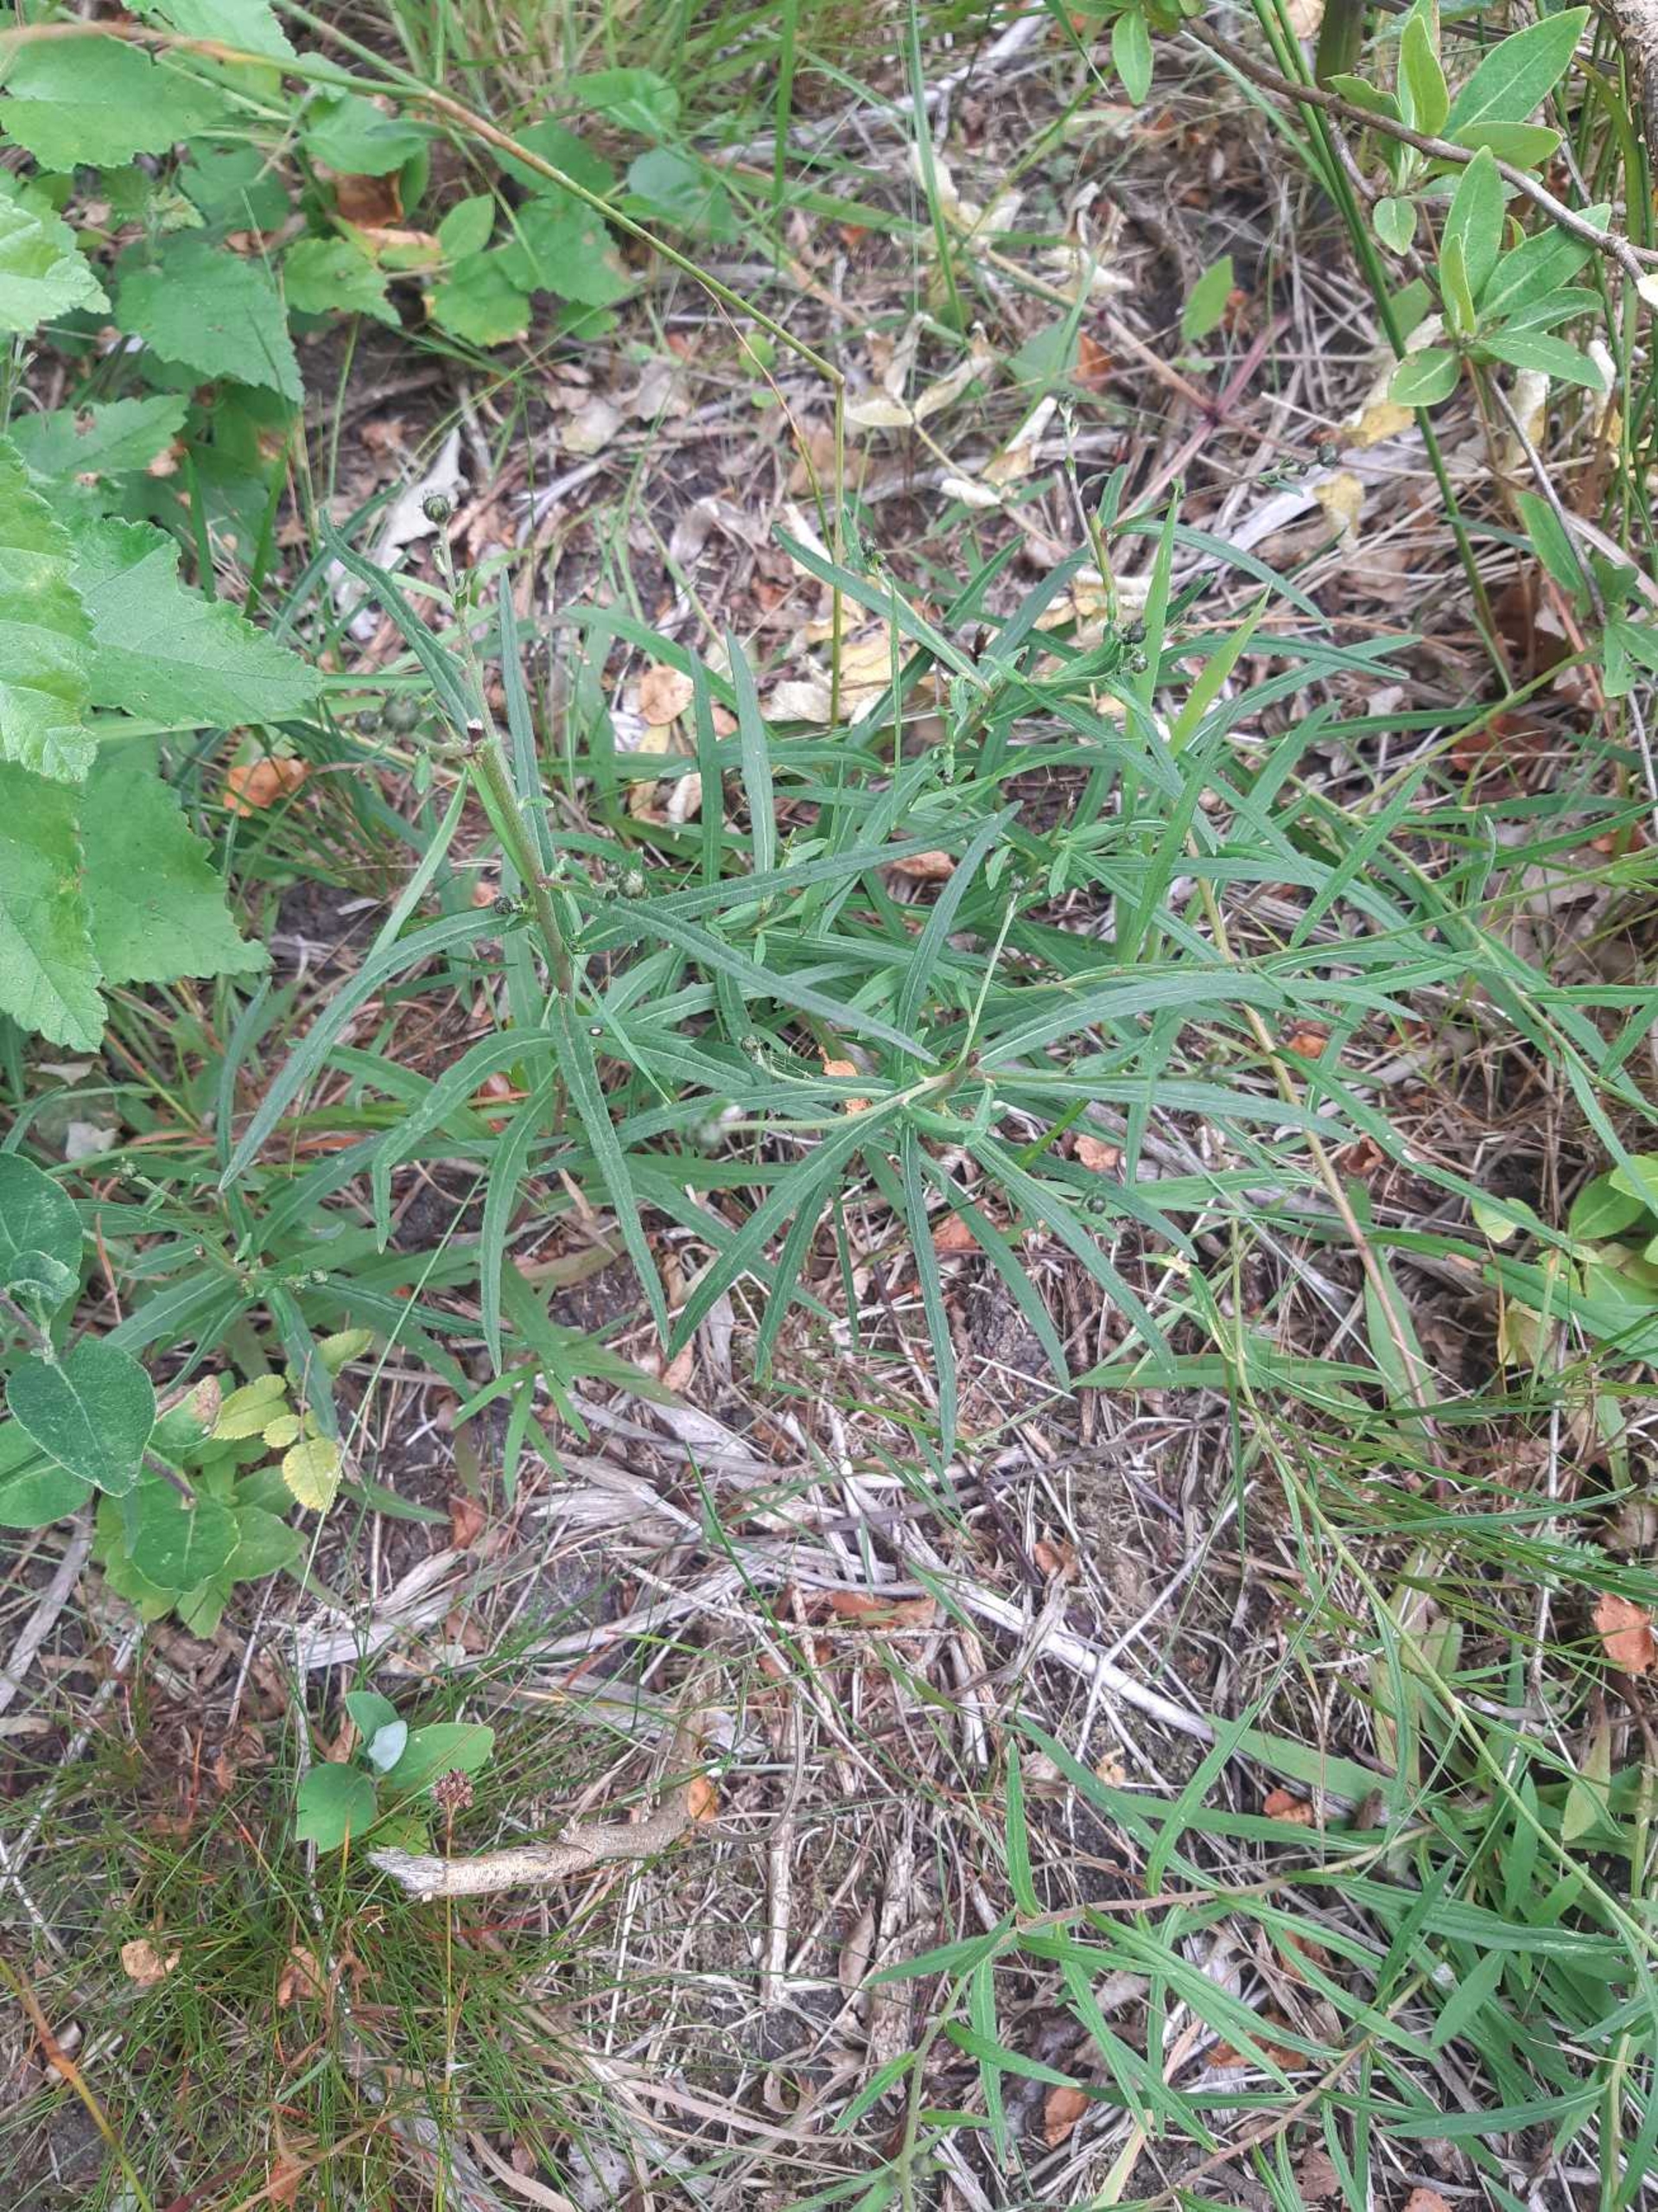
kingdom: Plantae
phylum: Tracheophyta
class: Magnoliopsida
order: Asterales
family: Asteraceae
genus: Hieracium
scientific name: Hieracium umbellatum
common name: Smalbladet høgeurt
